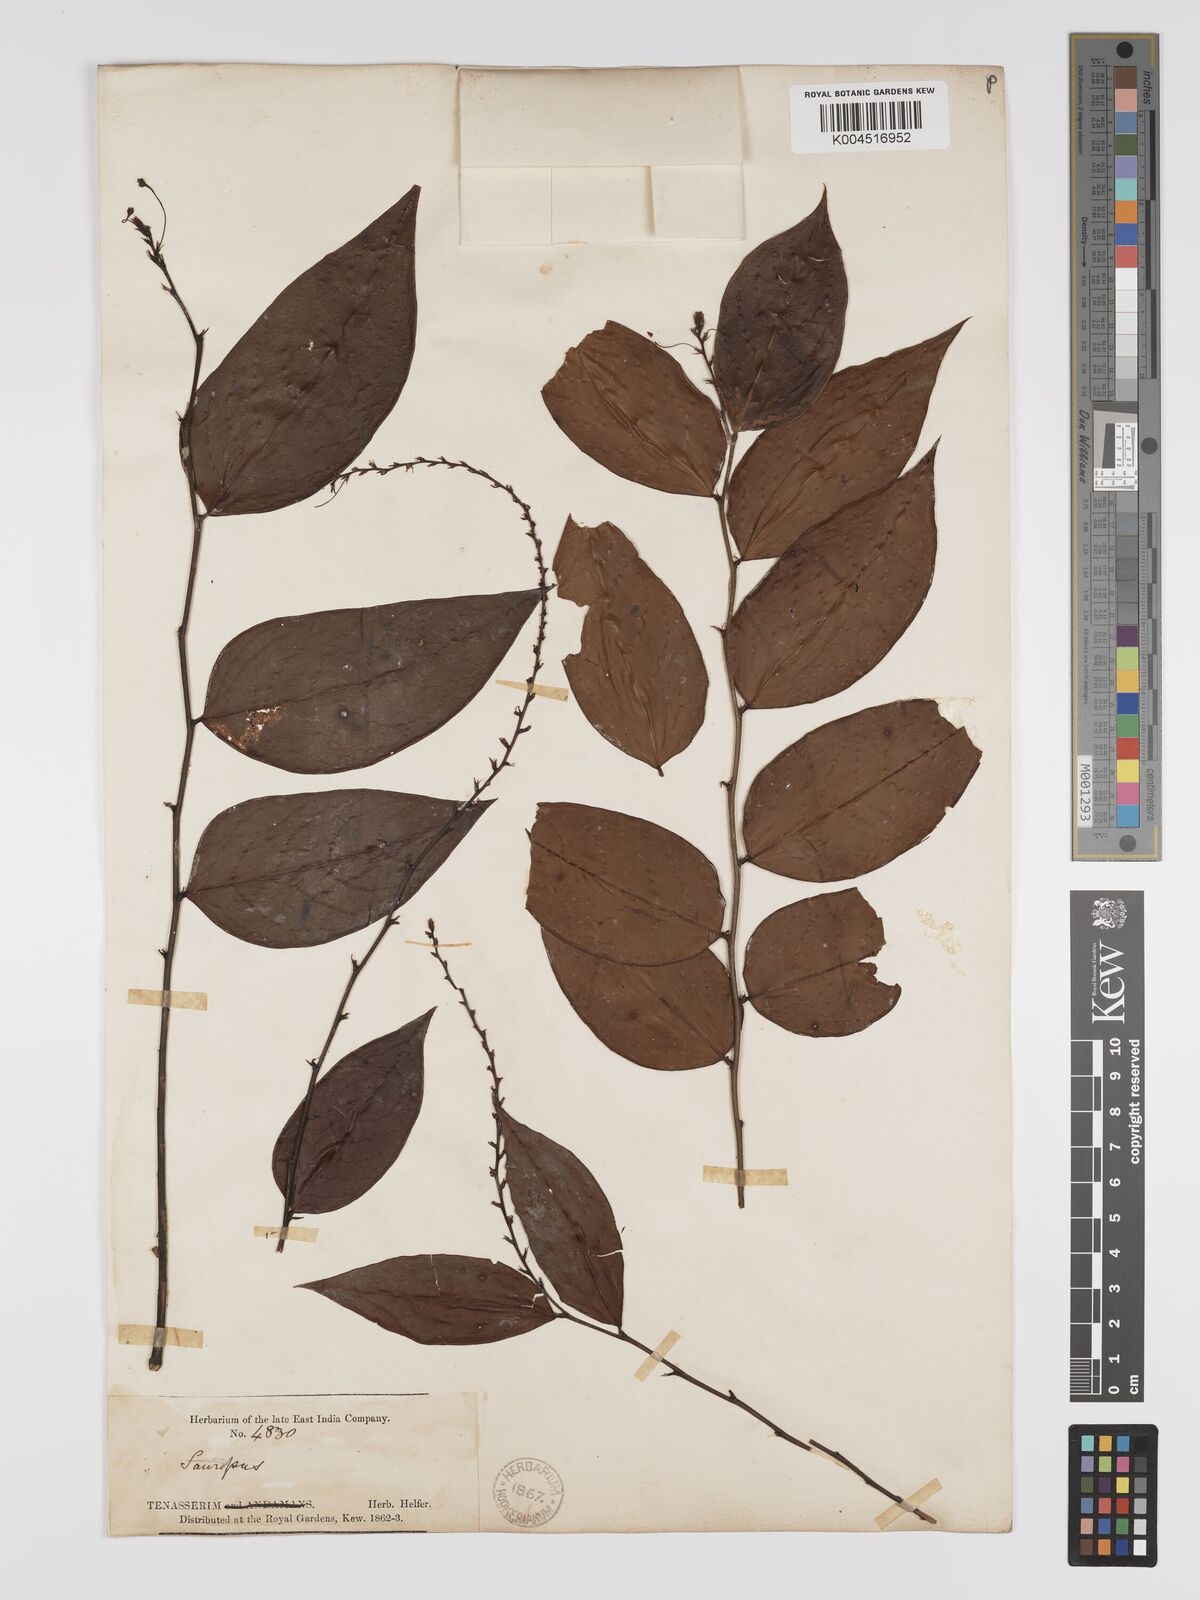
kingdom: Plantae
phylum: Tracheophyta
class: Magnoliopsida
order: Malpighiales
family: Phyllanthaceae
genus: Phyllanthus
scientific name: Phyllanthus elegans
